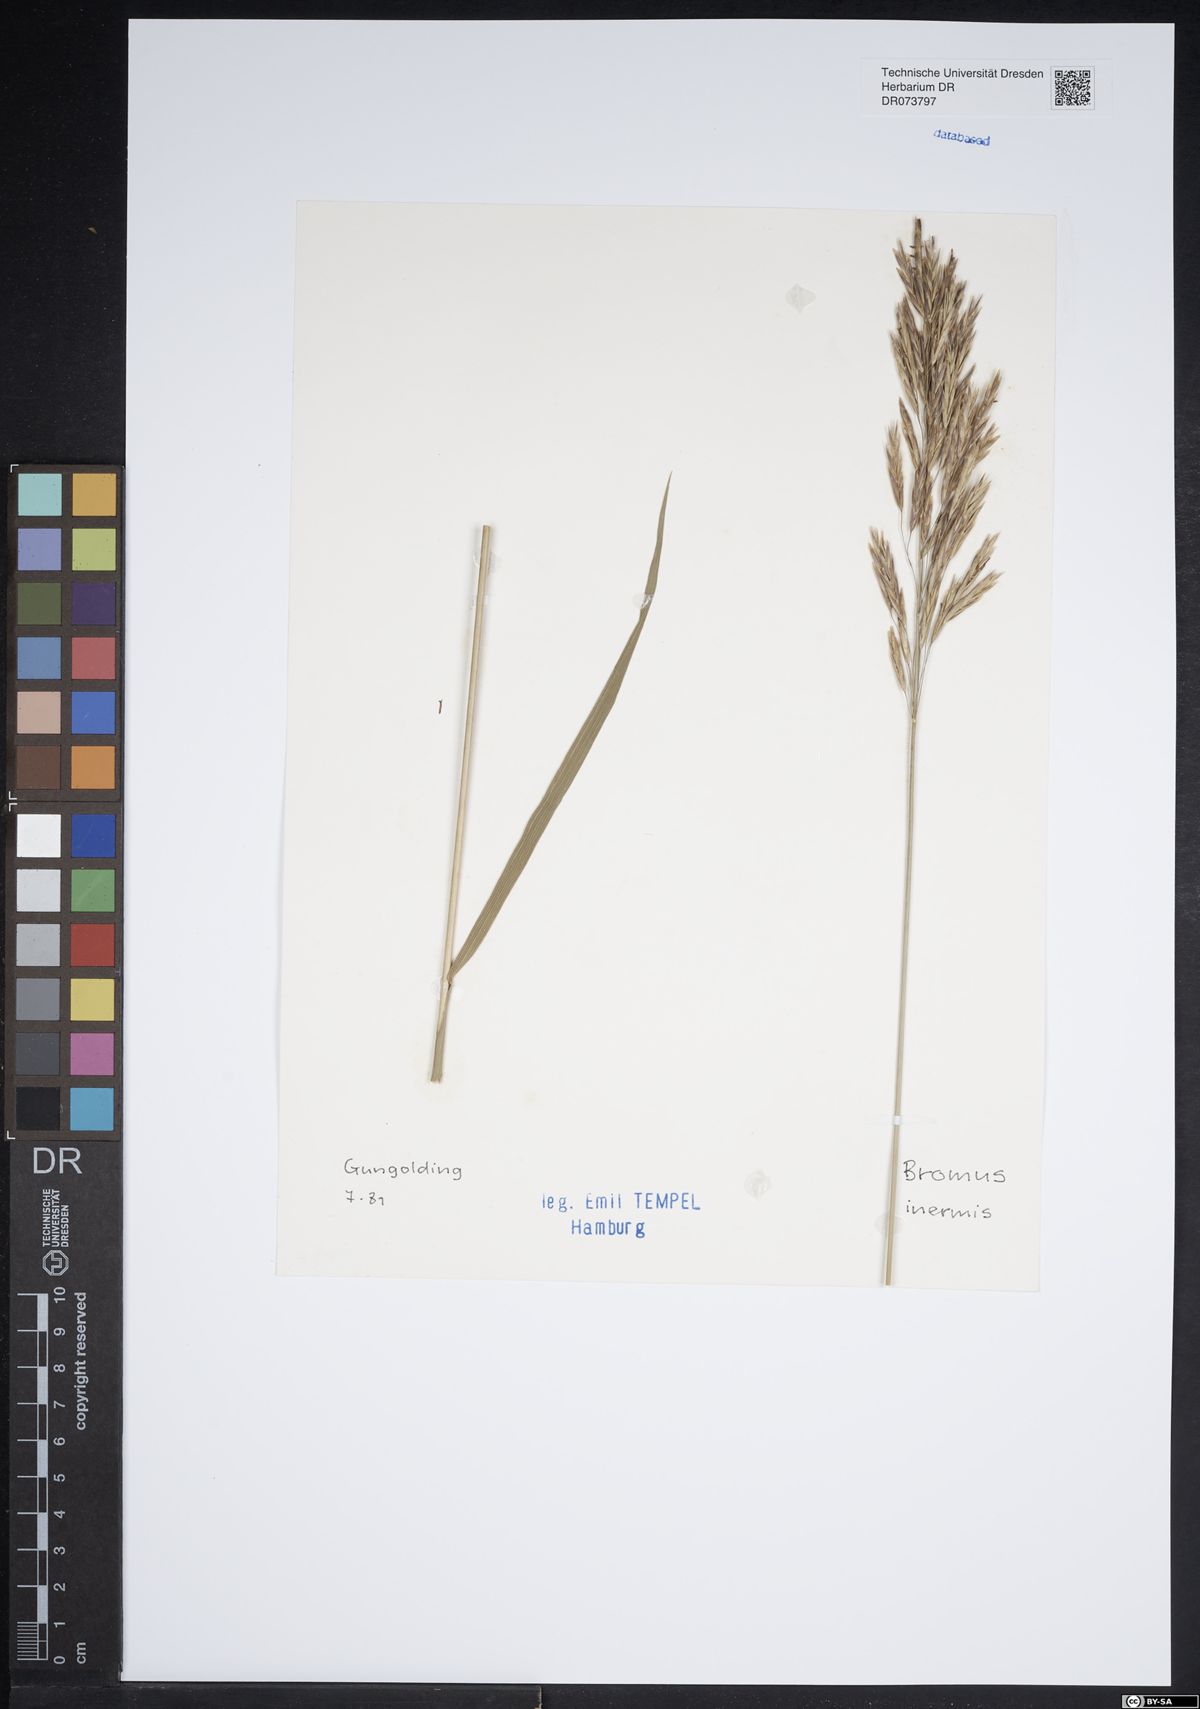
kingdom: Plantae
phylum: Tracheophyta
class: Liliopsida
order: Poales
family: Poaceae
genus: Bromus
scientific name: Bromus inermis
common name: Smooth brome
